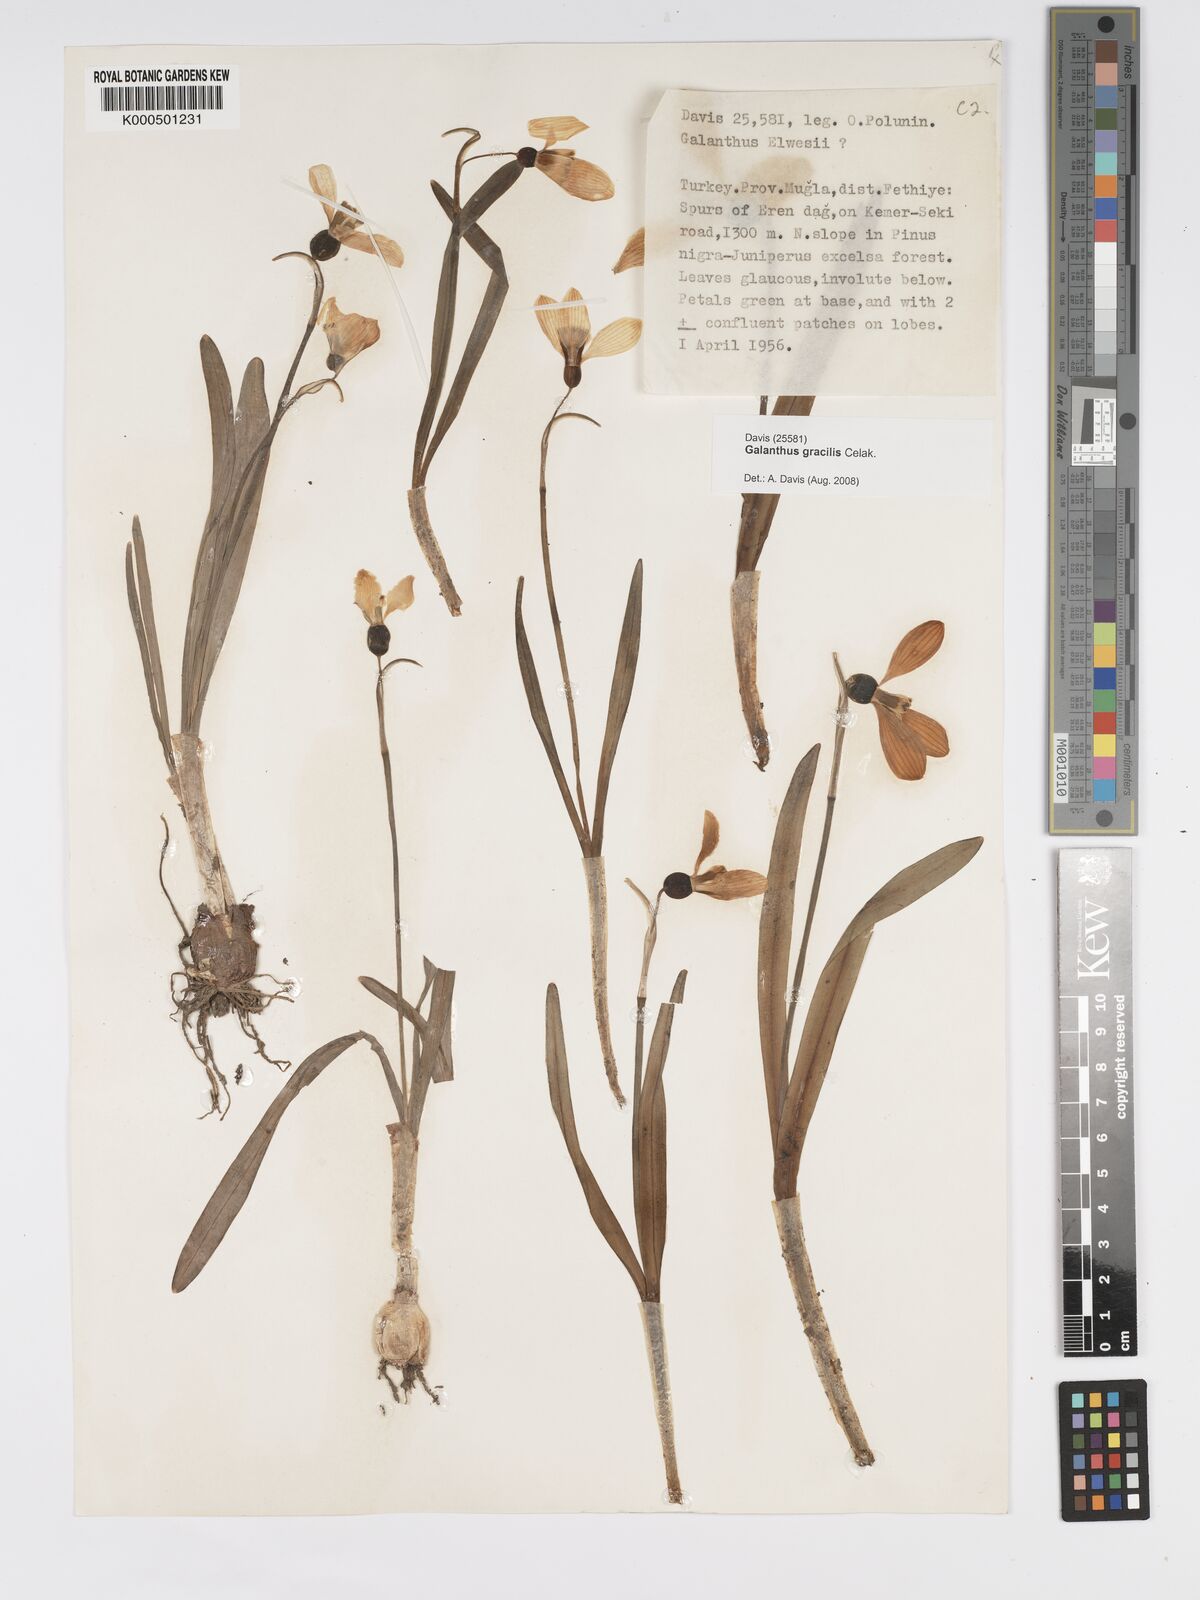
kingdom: Plantae
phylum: Tracheophyta
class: Liliopsida
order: Asparagales
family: Amaryllidaceae
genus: Galanthus
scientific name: Galanthus gracilis
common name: Snowdrop
